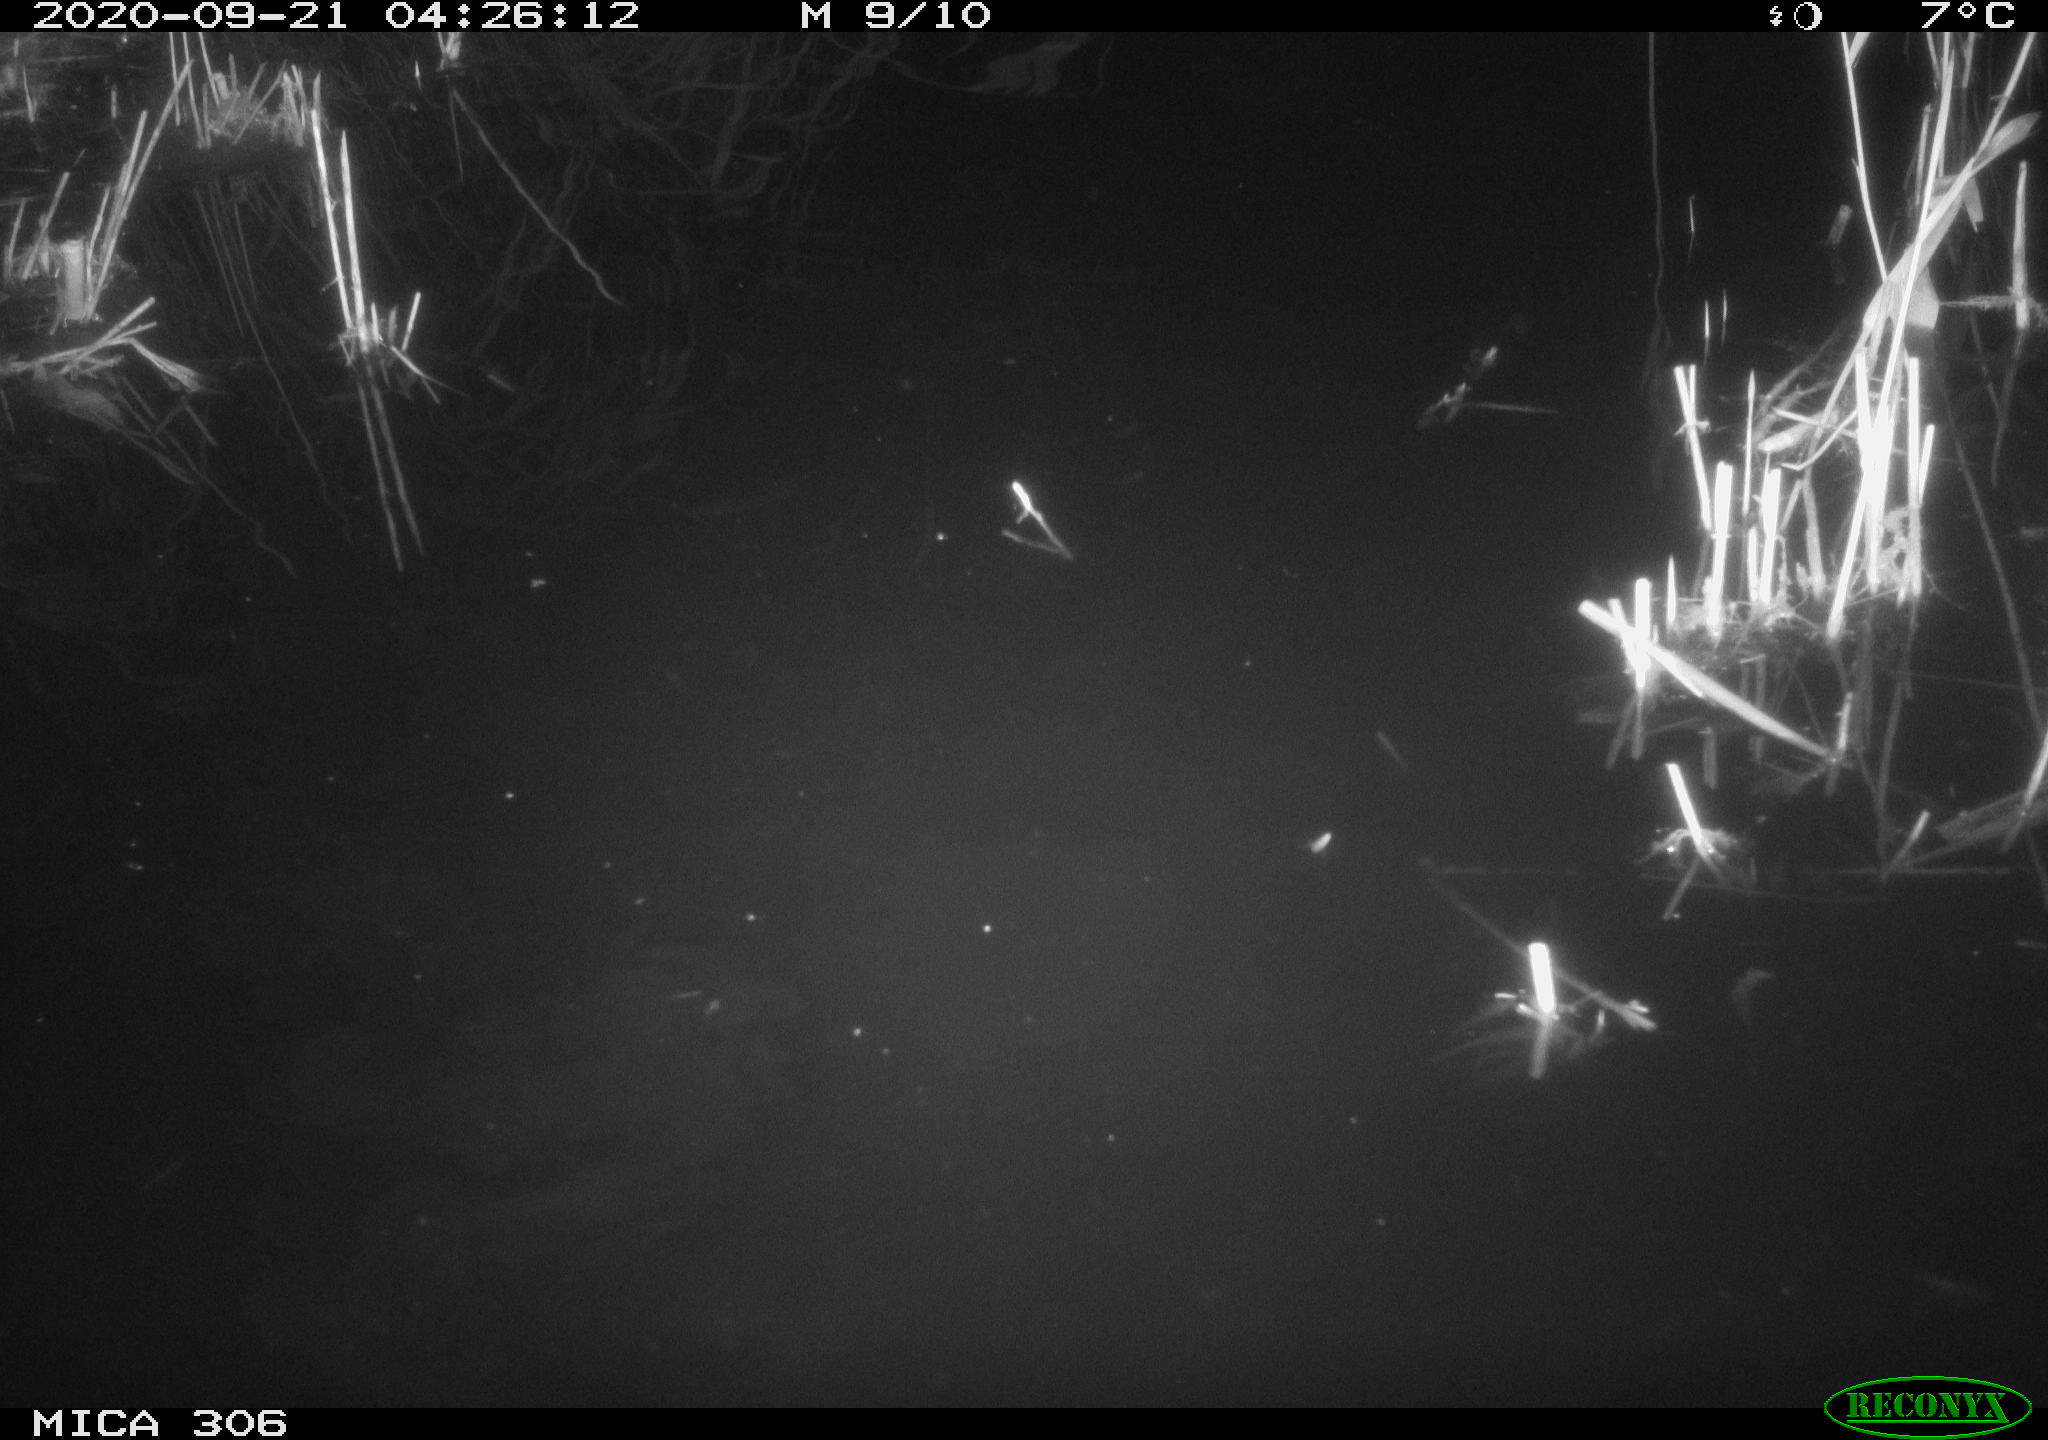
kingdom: Animalia
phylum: Chordata
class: Mammalia
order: Rodentia
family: Cricetidae
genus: Ondatra
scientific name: Ondatra zibethicus
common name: Muskrat
